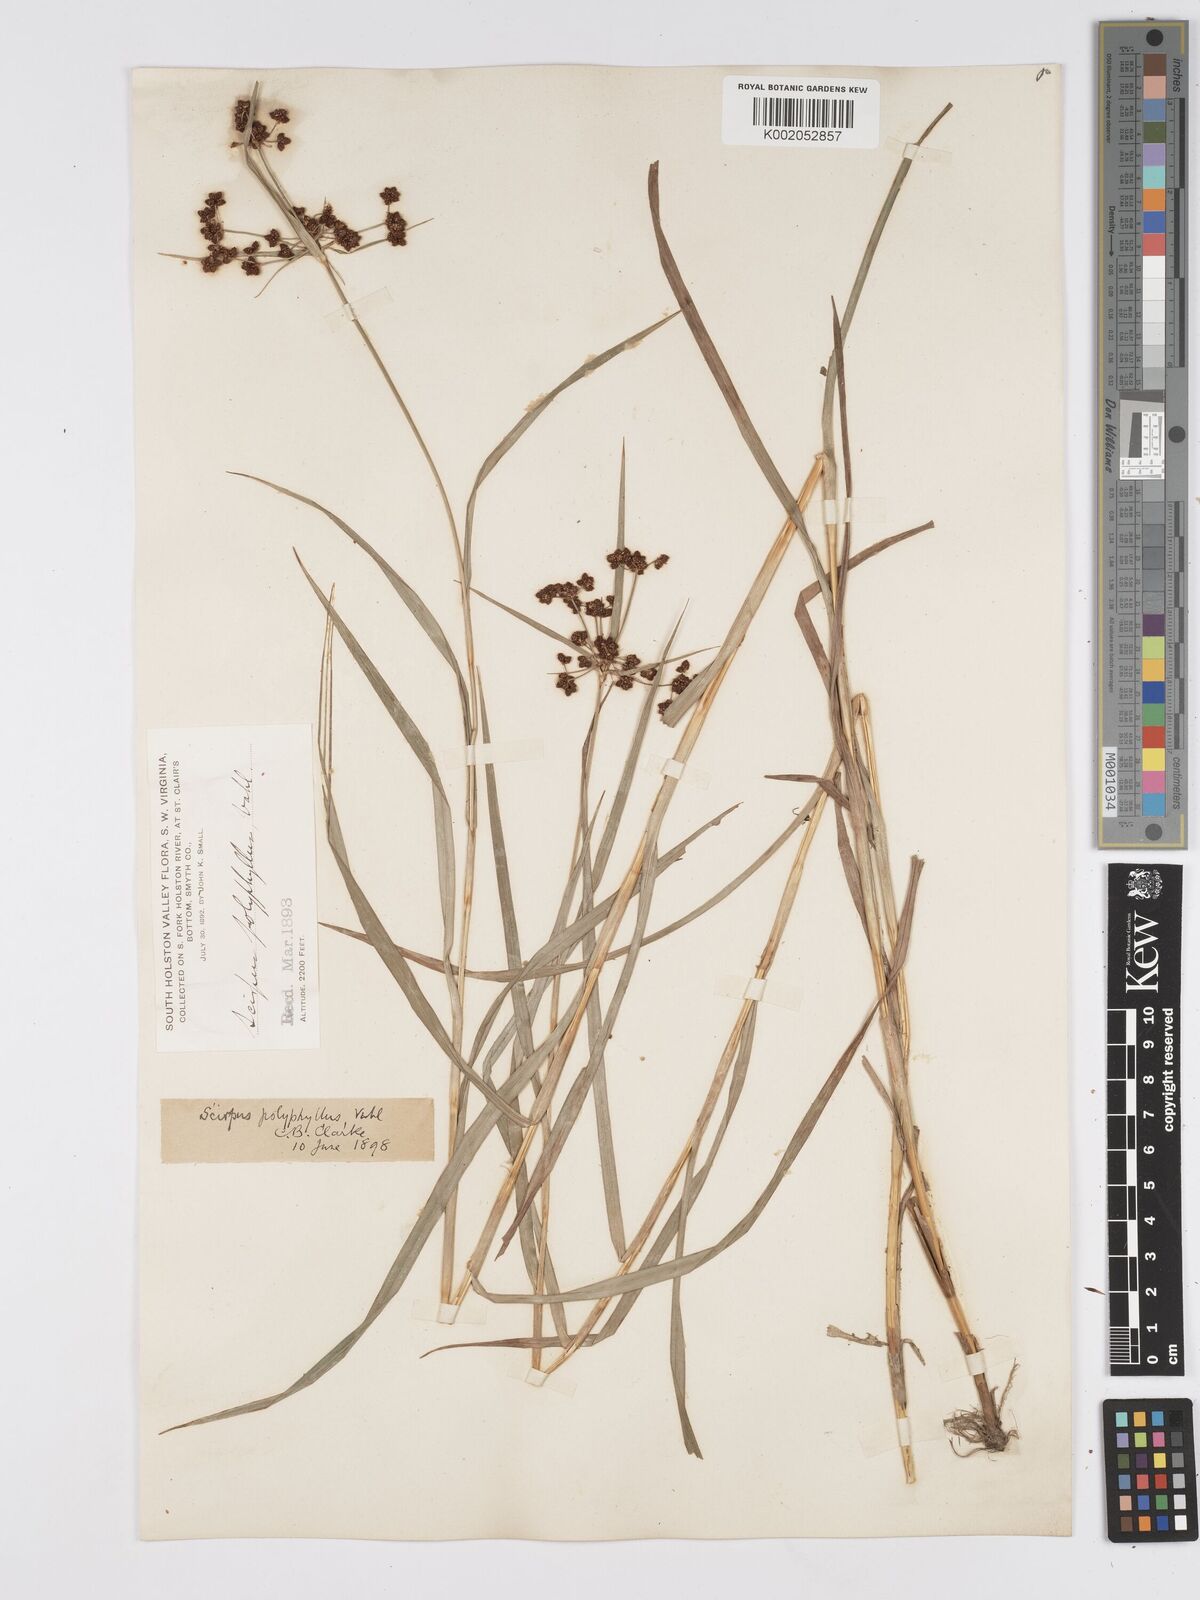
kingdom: Plantae
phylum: Tracheophyta
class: Liliopsida
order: Poales
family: Cyperaceae
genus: Scirpus
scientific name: Scirpus polyphyllus
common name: Leafy bulrush
